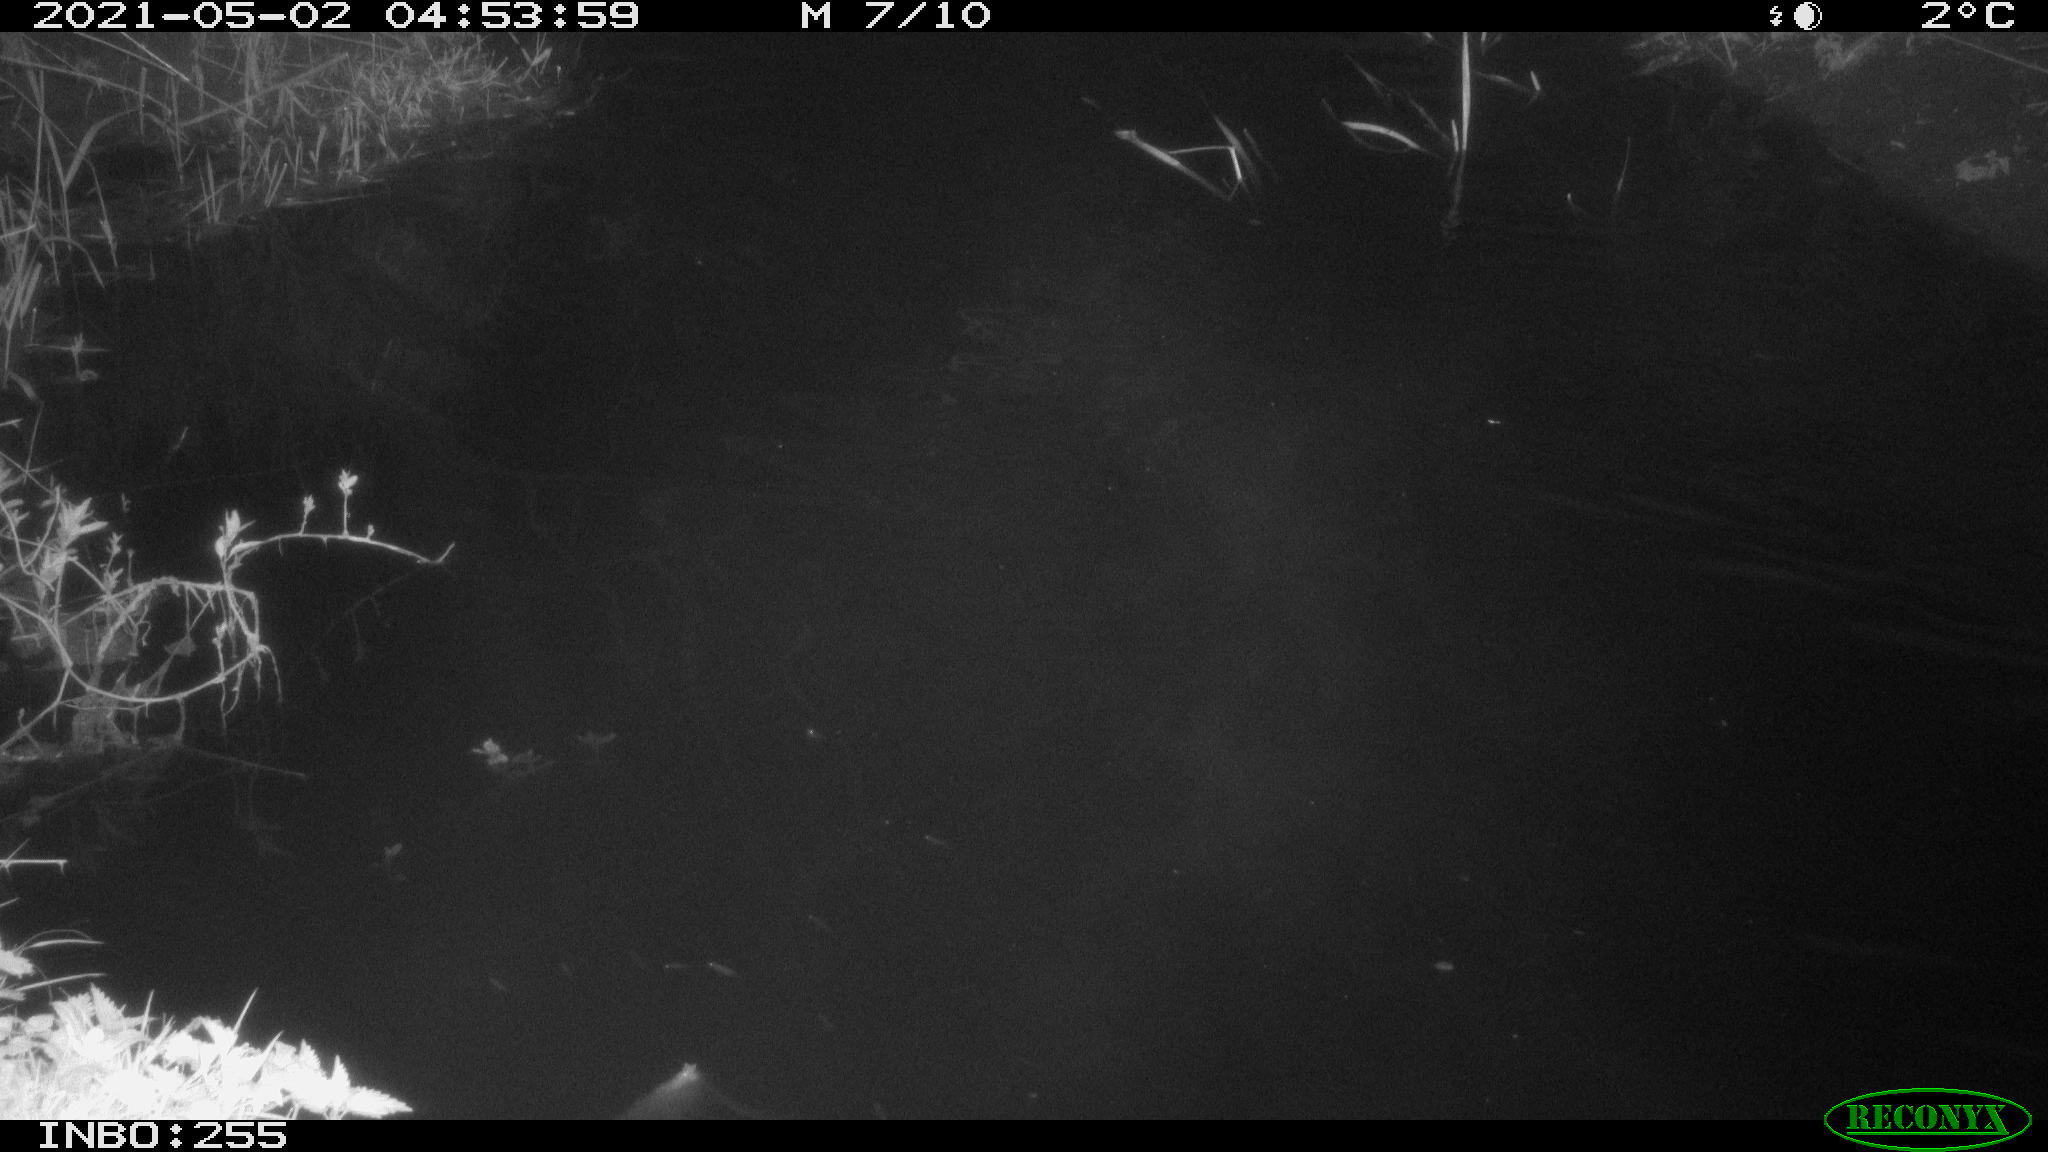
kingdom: Animalia
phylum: Chordata
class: Aves
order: Anseriformes
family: Anatidae
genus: Anas
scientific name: Anas platyrhynchos
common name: Mallard
